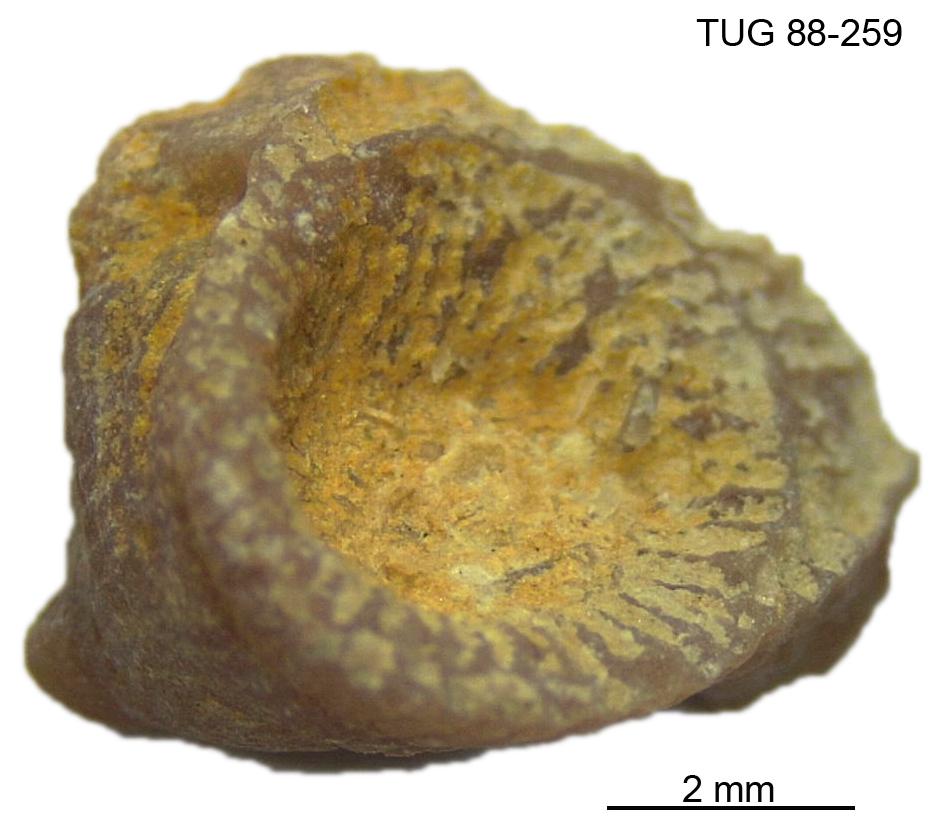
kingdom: Animalia
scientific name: Animalia
